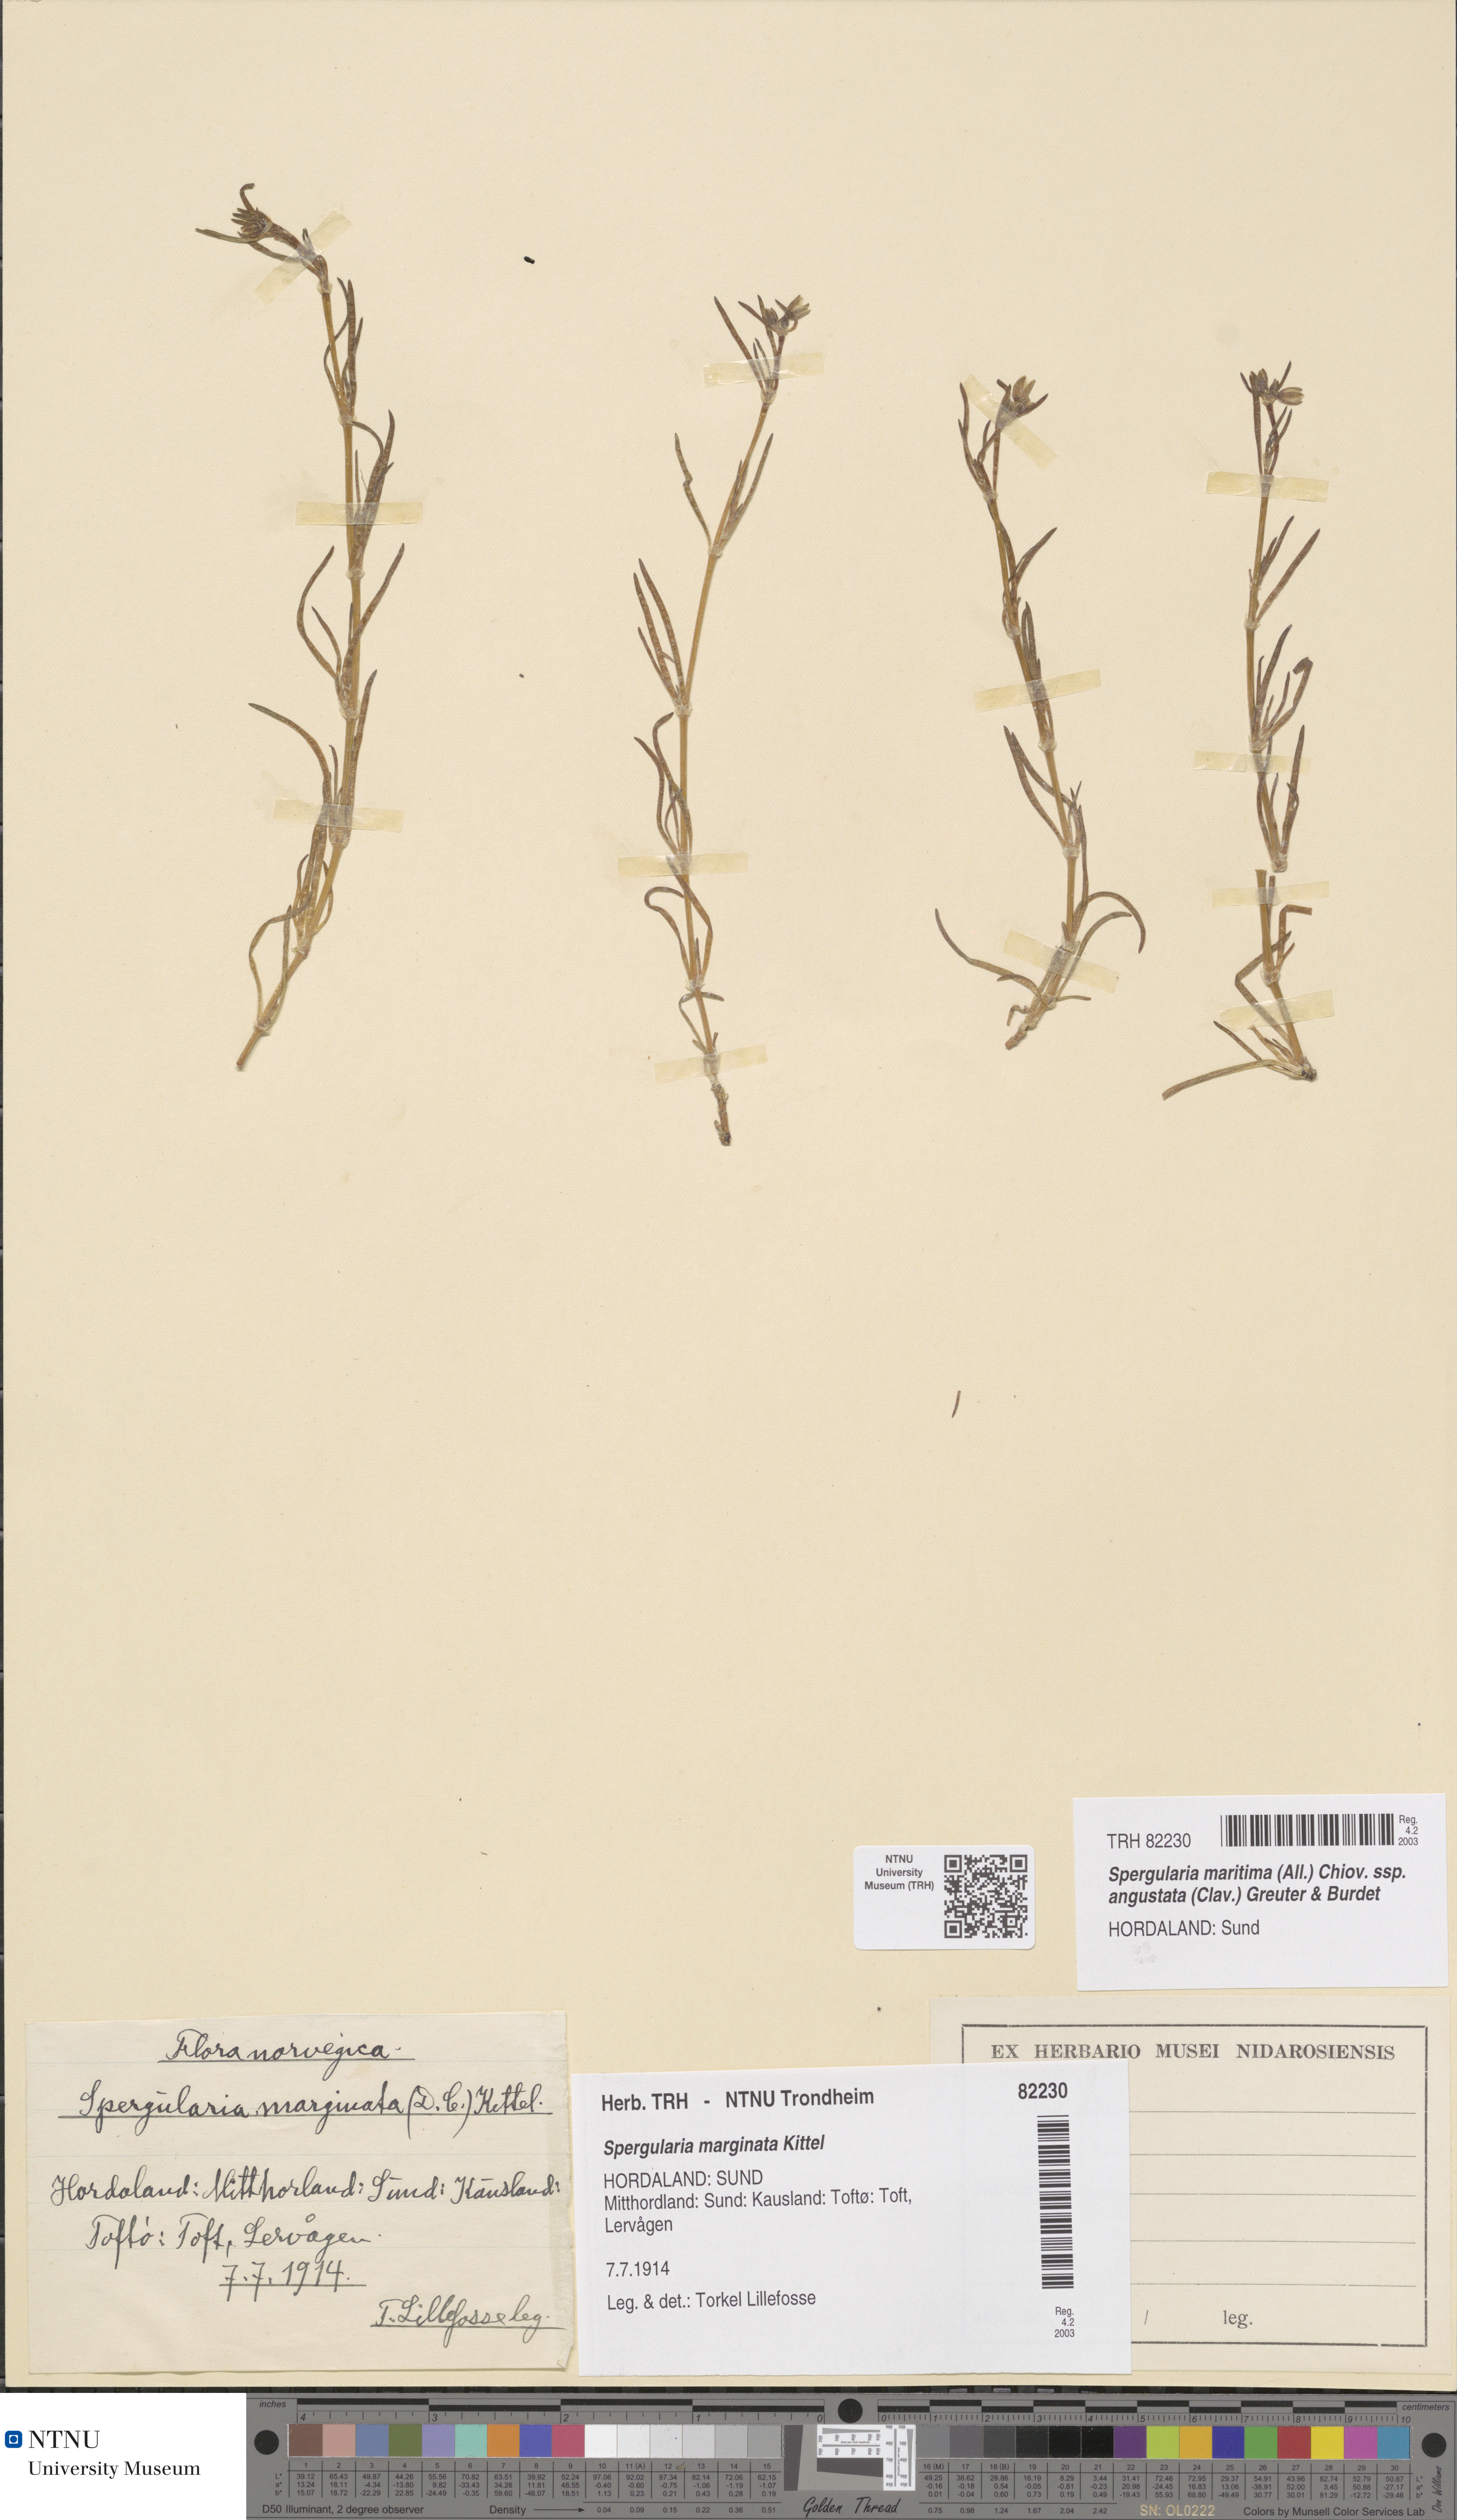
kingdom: Plantae
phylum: Tracheophyta
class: Magnoliopsida
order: Caryophyllales
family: Caryophyllaceae
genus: Spergularia
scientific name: Spergularia media
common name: Greater sea-spurrey
